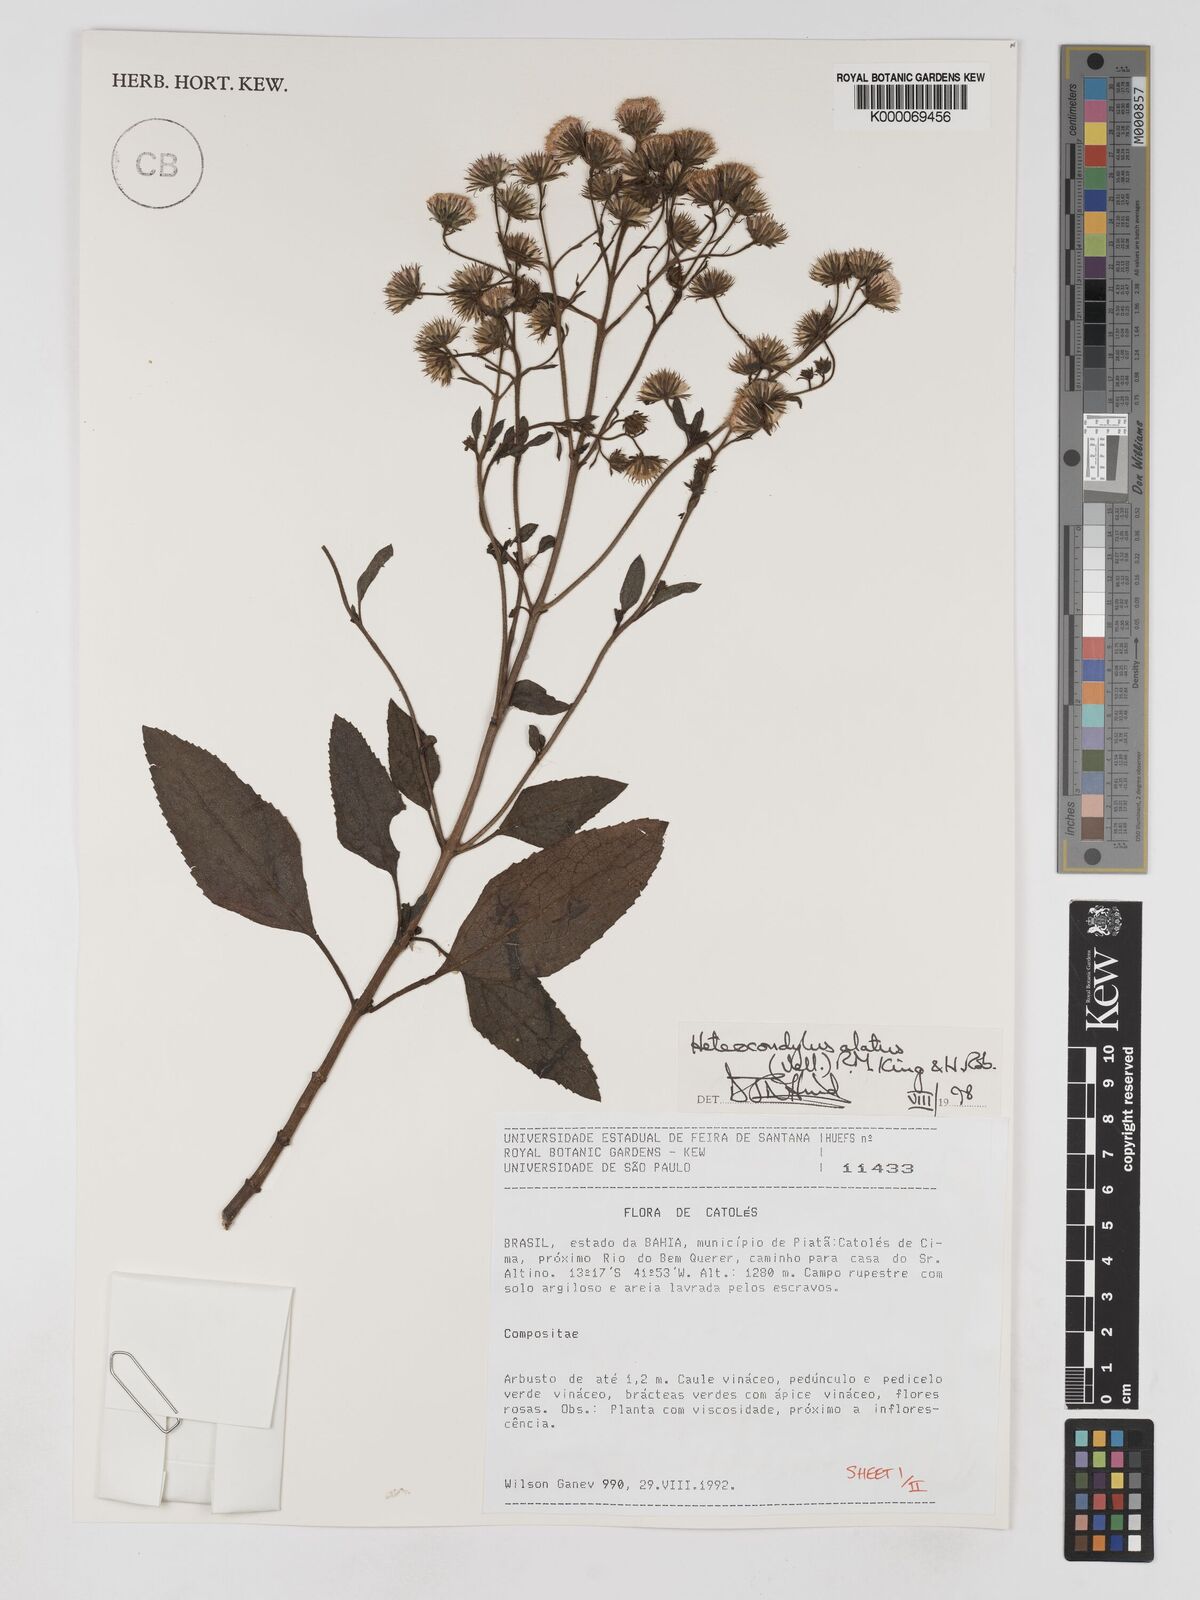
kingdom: Plantae
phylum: Tracheophyta
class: Magnoliopsida
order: Asterales
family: Asteraceae
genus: Heterocondylus
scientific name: Heterocondylus alatus
